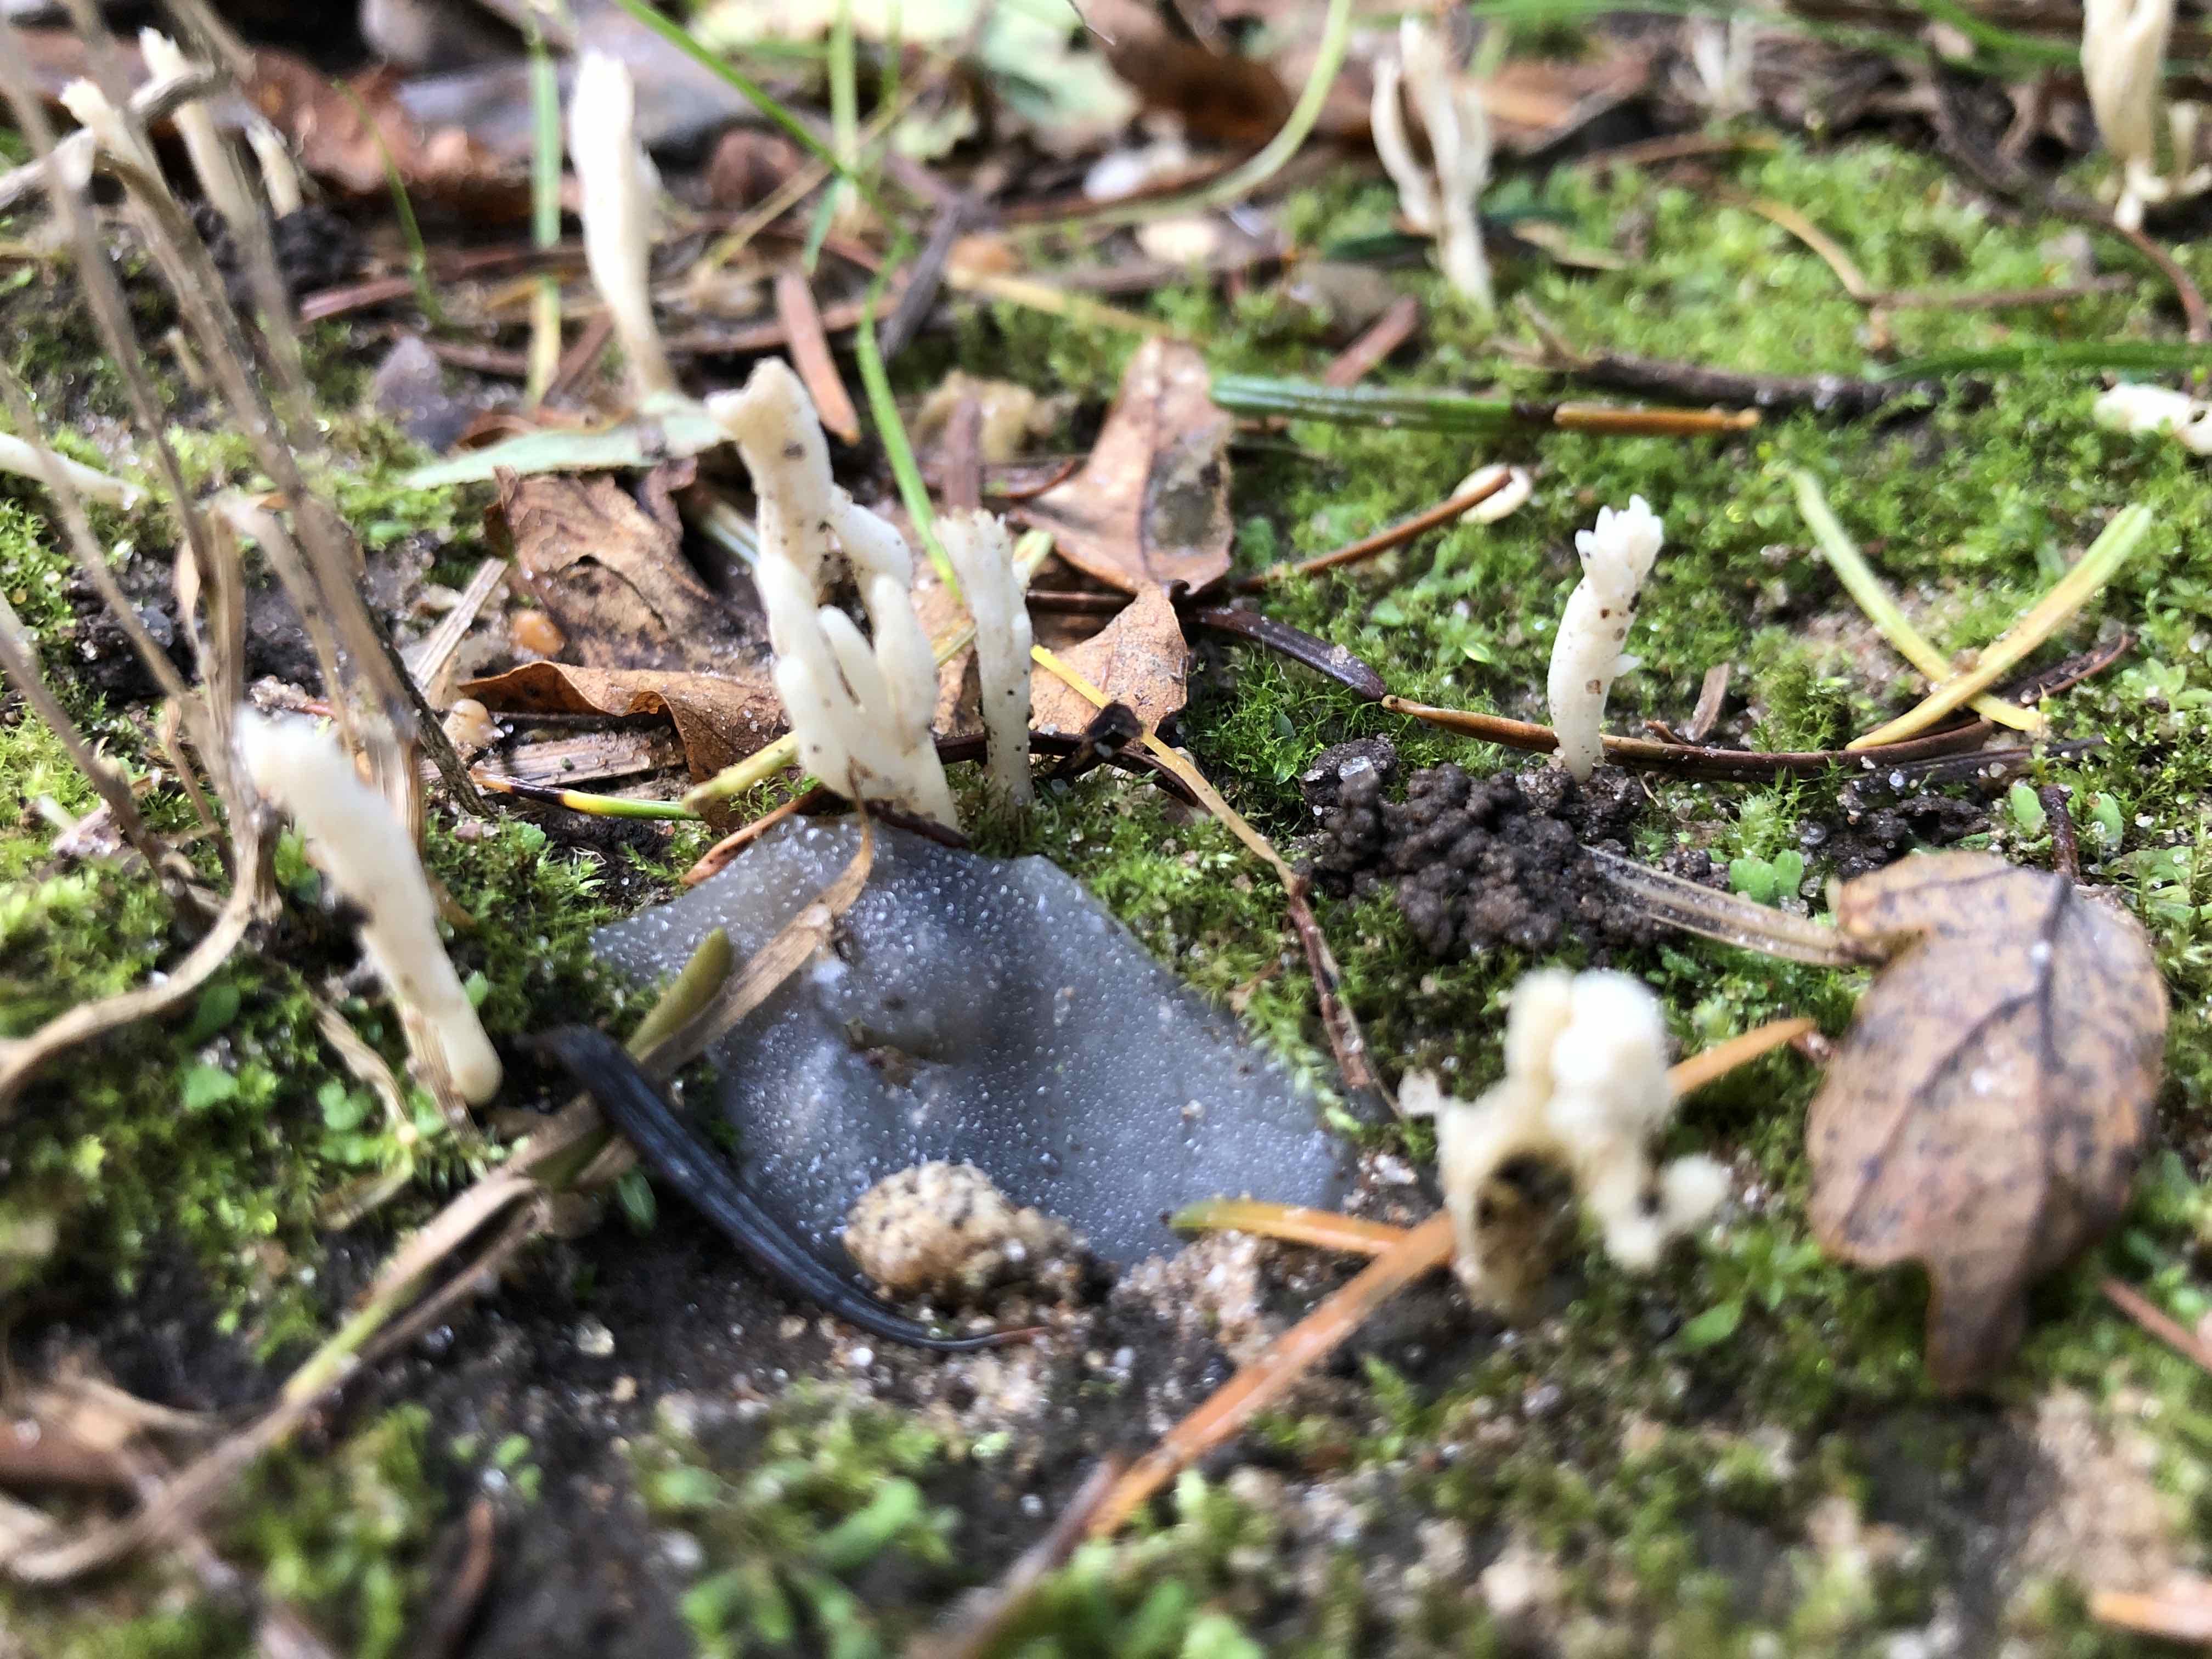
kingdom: Fungi
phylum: Basidiomycota
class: Agaricomycetes
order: Cantharellales
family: Hydnaceae
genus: Clavulina
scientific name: Clavulina
